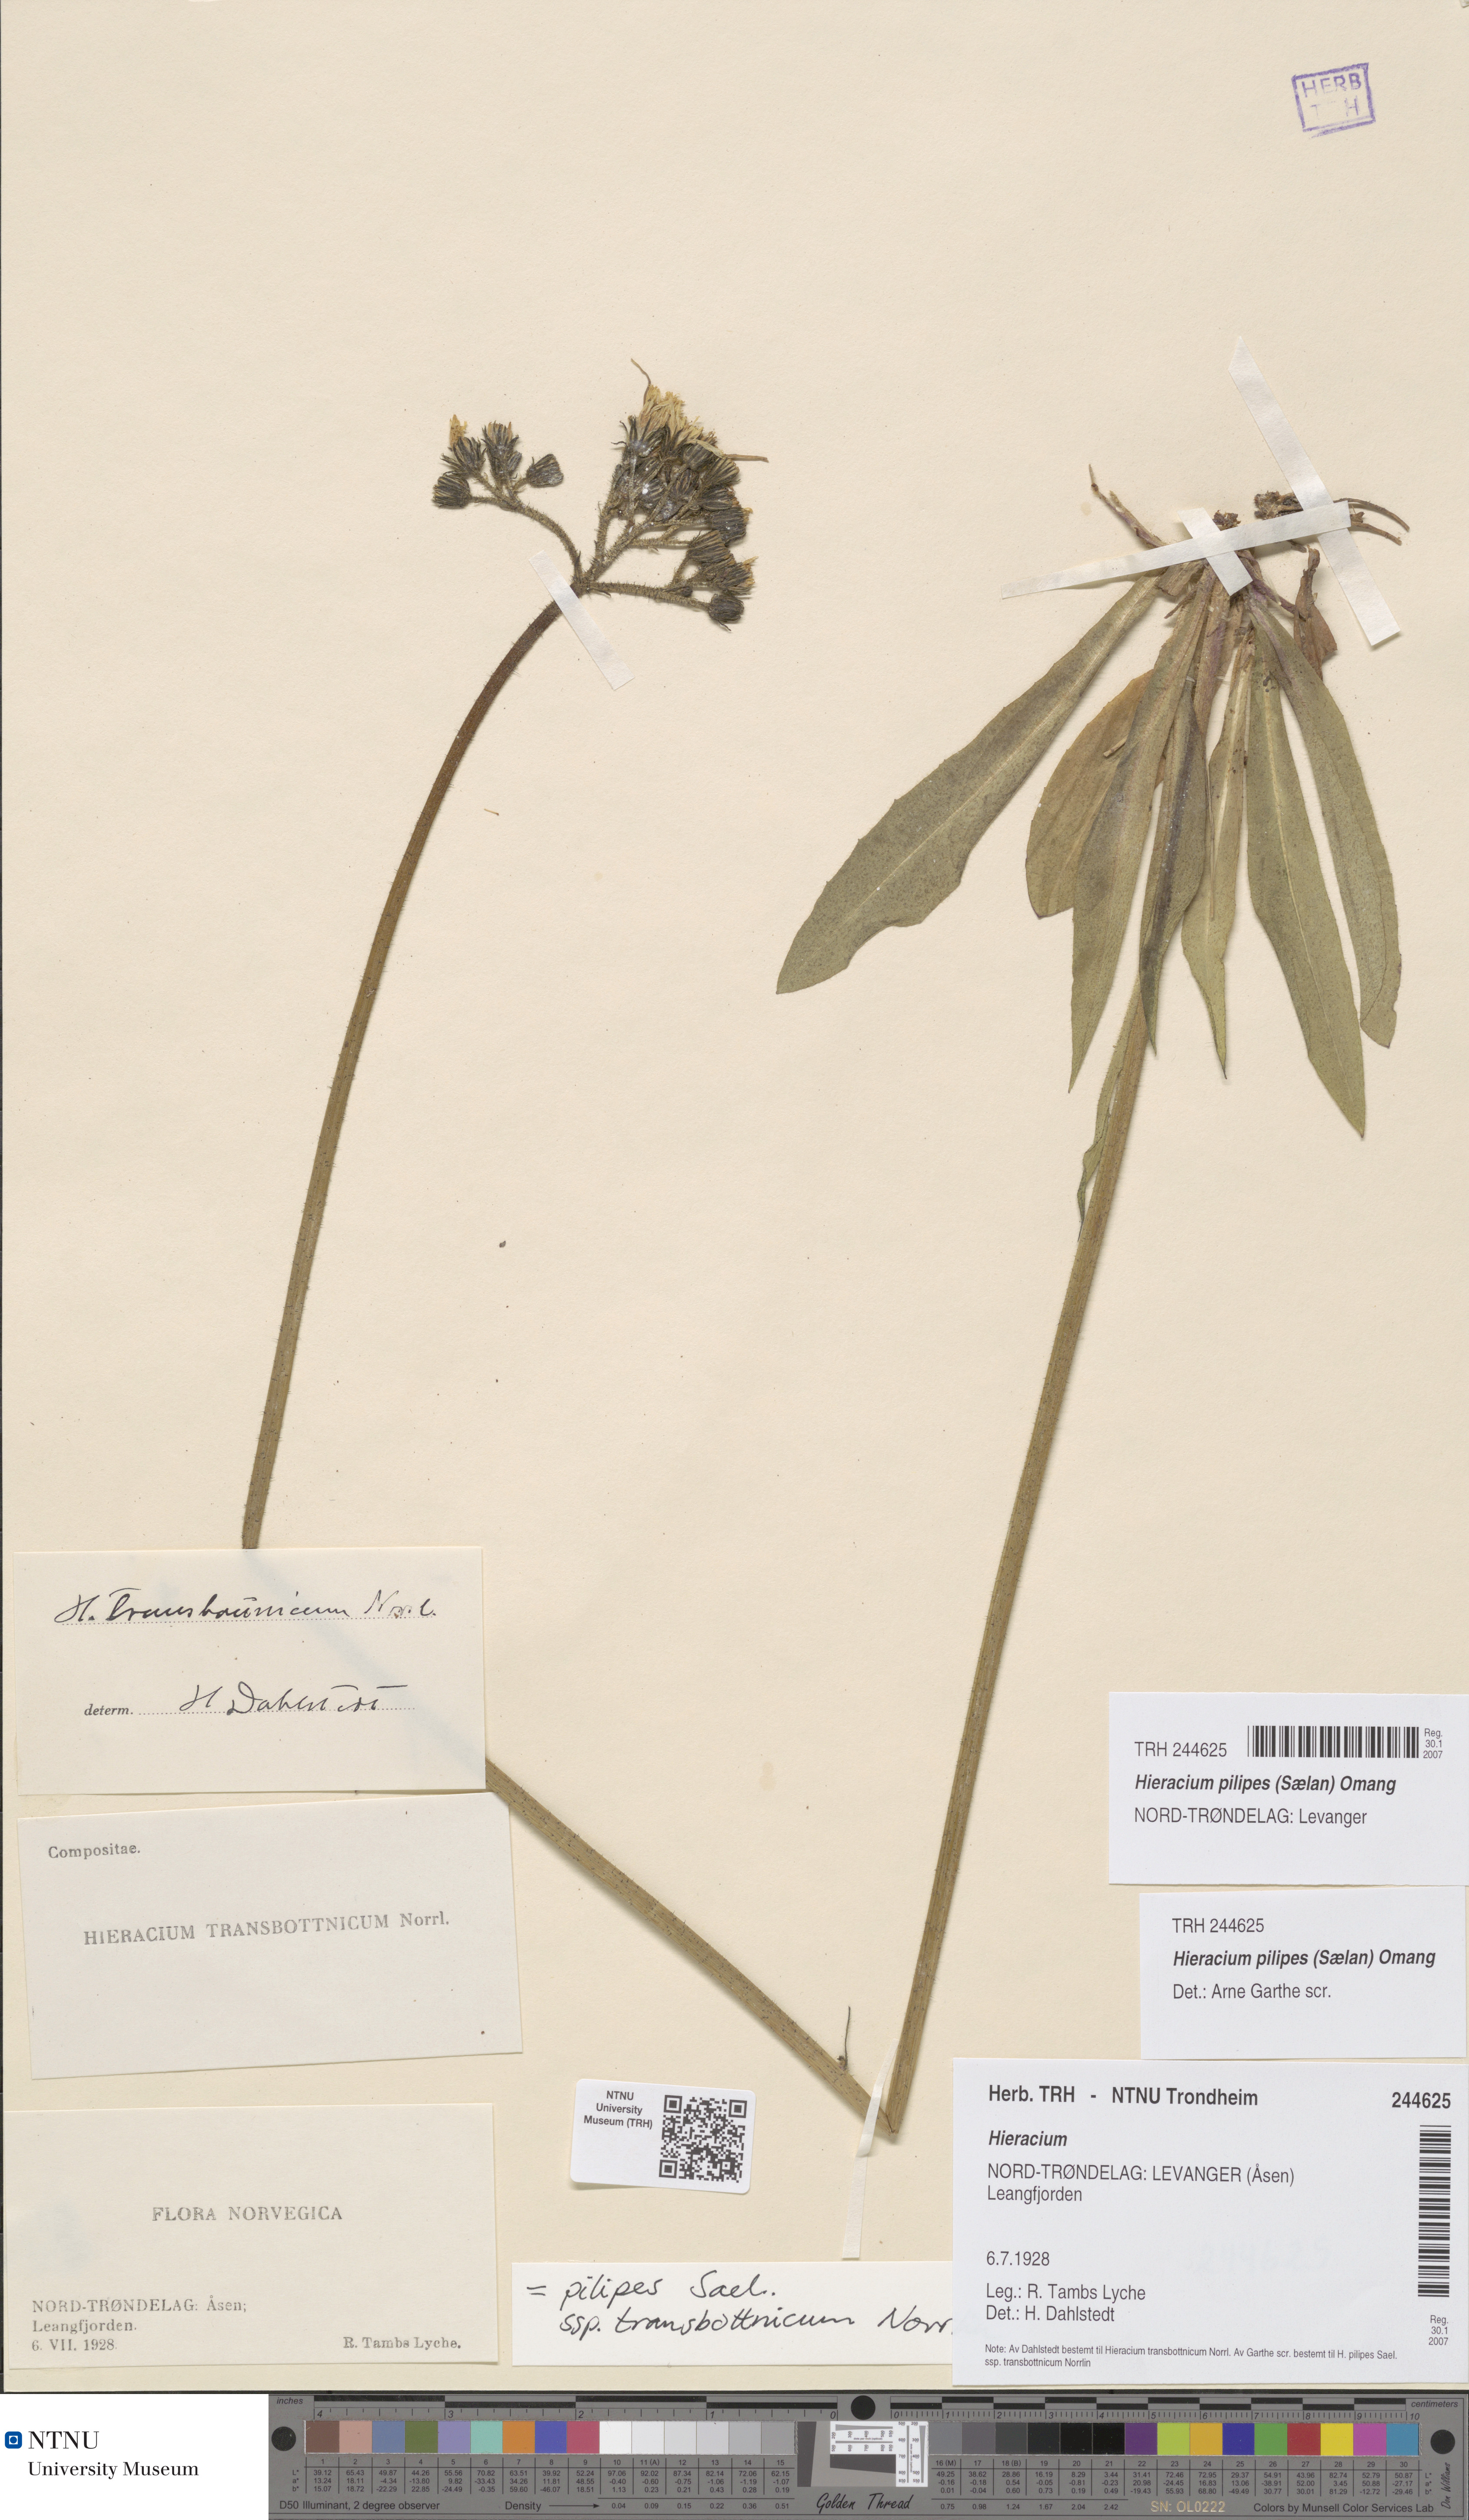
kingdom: Plantae
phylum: Tracheophyta
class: Magnoliopsida
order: Asterales
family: Asteraceae
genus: Pilosella
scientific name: Pilosella dubia
